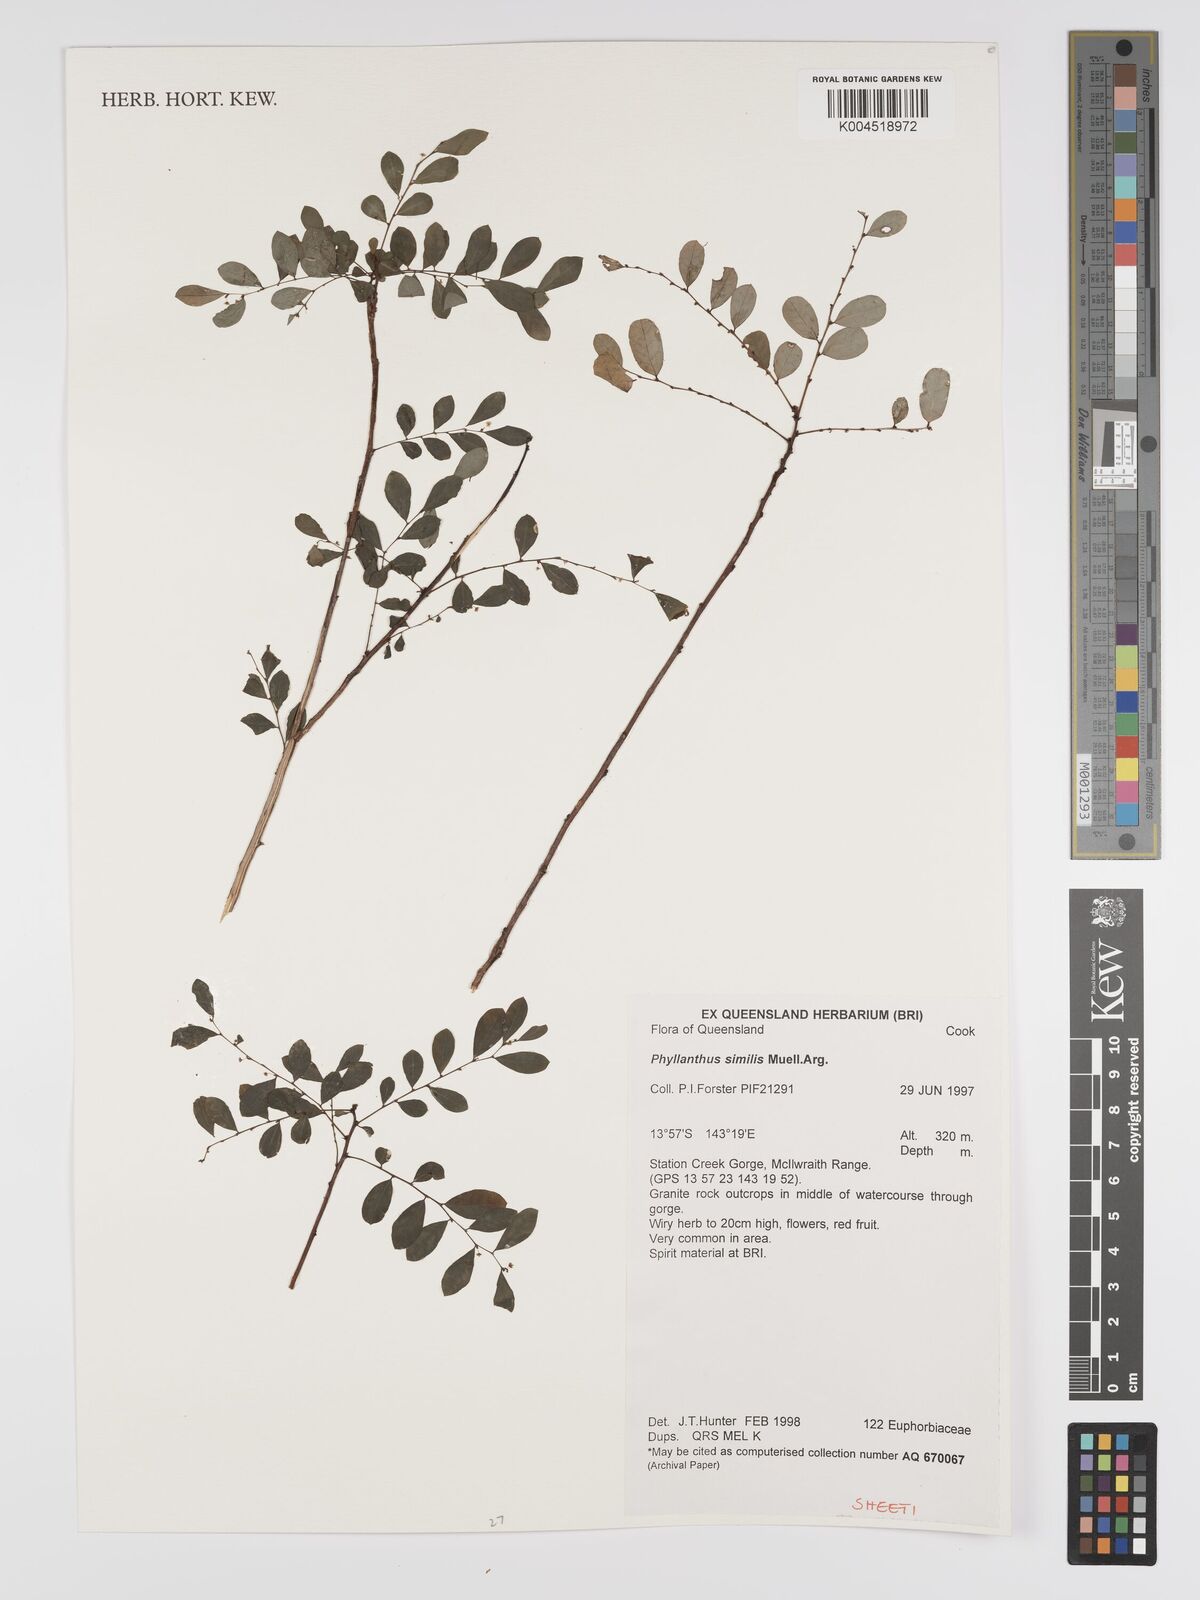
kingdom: Plantae
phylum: Tracheophyta
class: Magnoliopsida
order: Malpighiales
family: Phyllanthaceae
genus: Phyllanthus
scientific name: Phyllanthus similis
